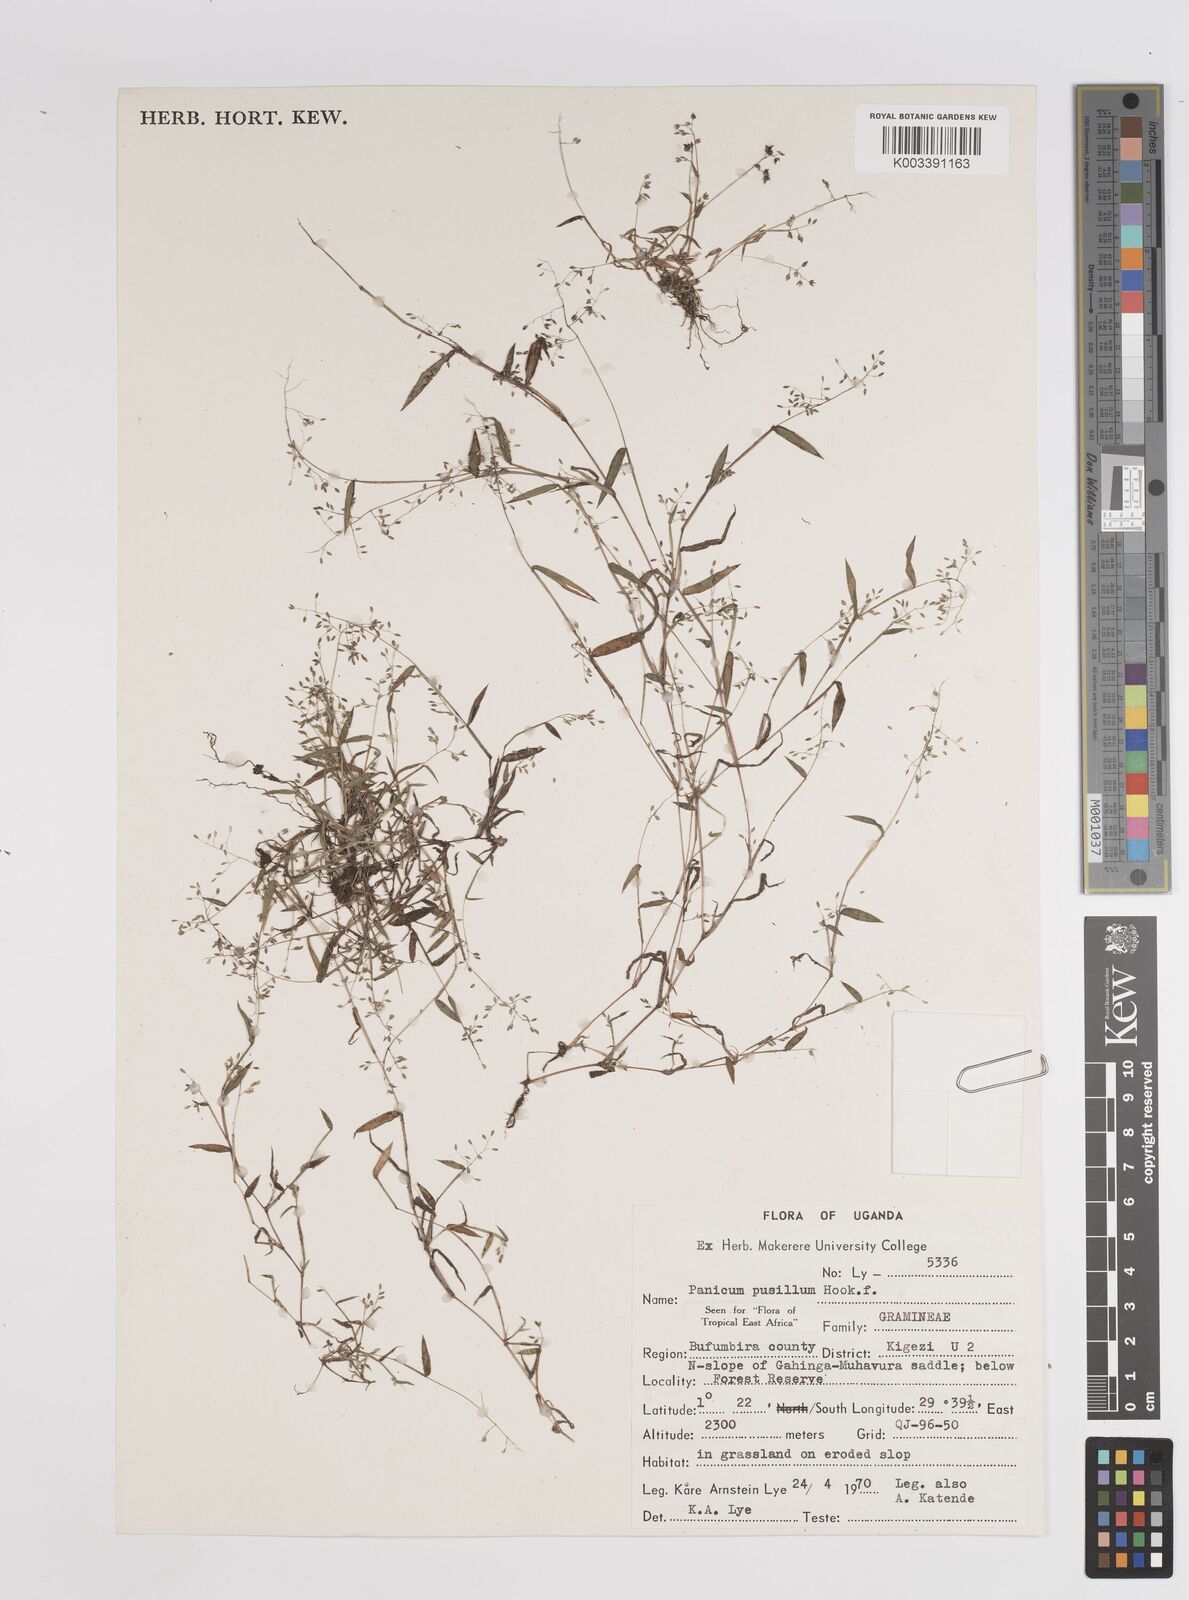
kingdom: Plantae
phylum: Tracheophyta
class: Liliopsida
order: Poales
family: Poaceae
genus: Panicum
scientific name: Panicum pusillum
